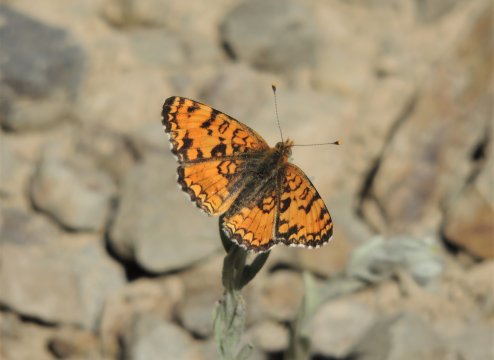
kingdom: Animalia
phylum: Arthropoda
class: Insecta
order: Lepidoptera
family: Nymphalidae
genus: Eresia
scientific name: Eresia aveyrona
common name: Mylitta Crescent
